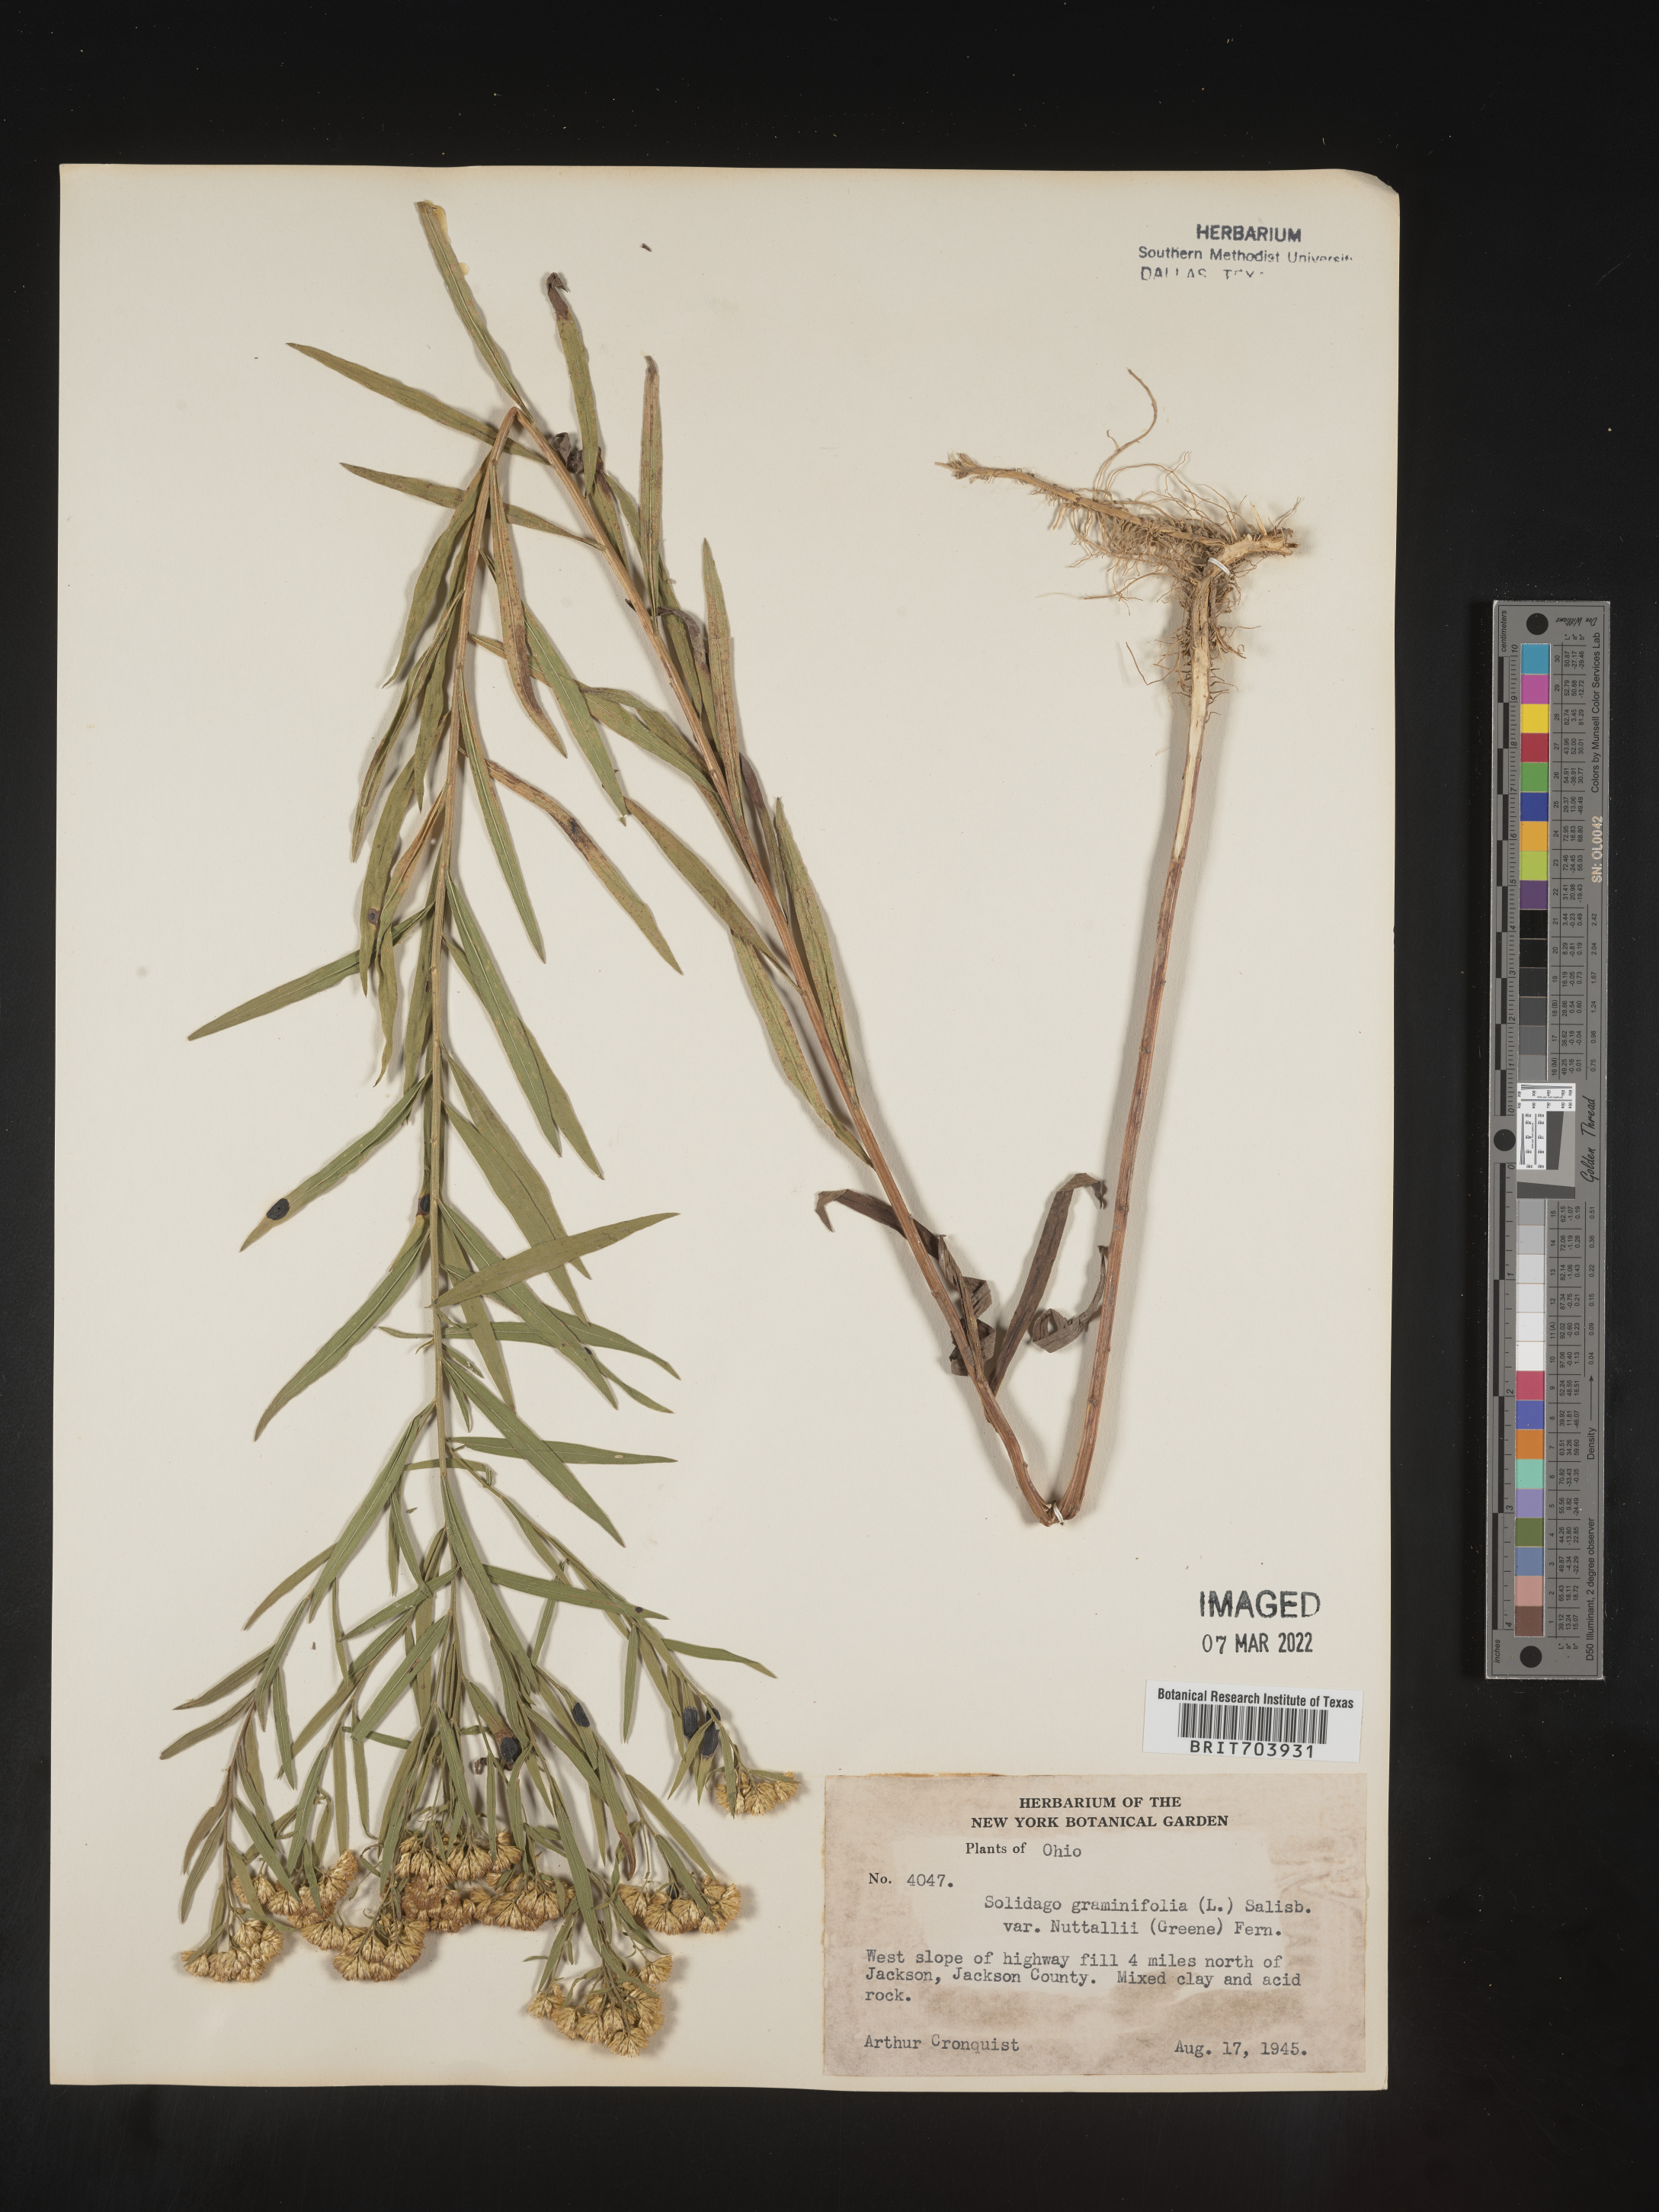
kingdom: Plantae
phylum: Tracheophyta
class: Magnoliopsida
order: Asterales
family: Asteraceae
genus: Euthamia
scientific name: Euthamia graminifolia
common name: Common goldentop
